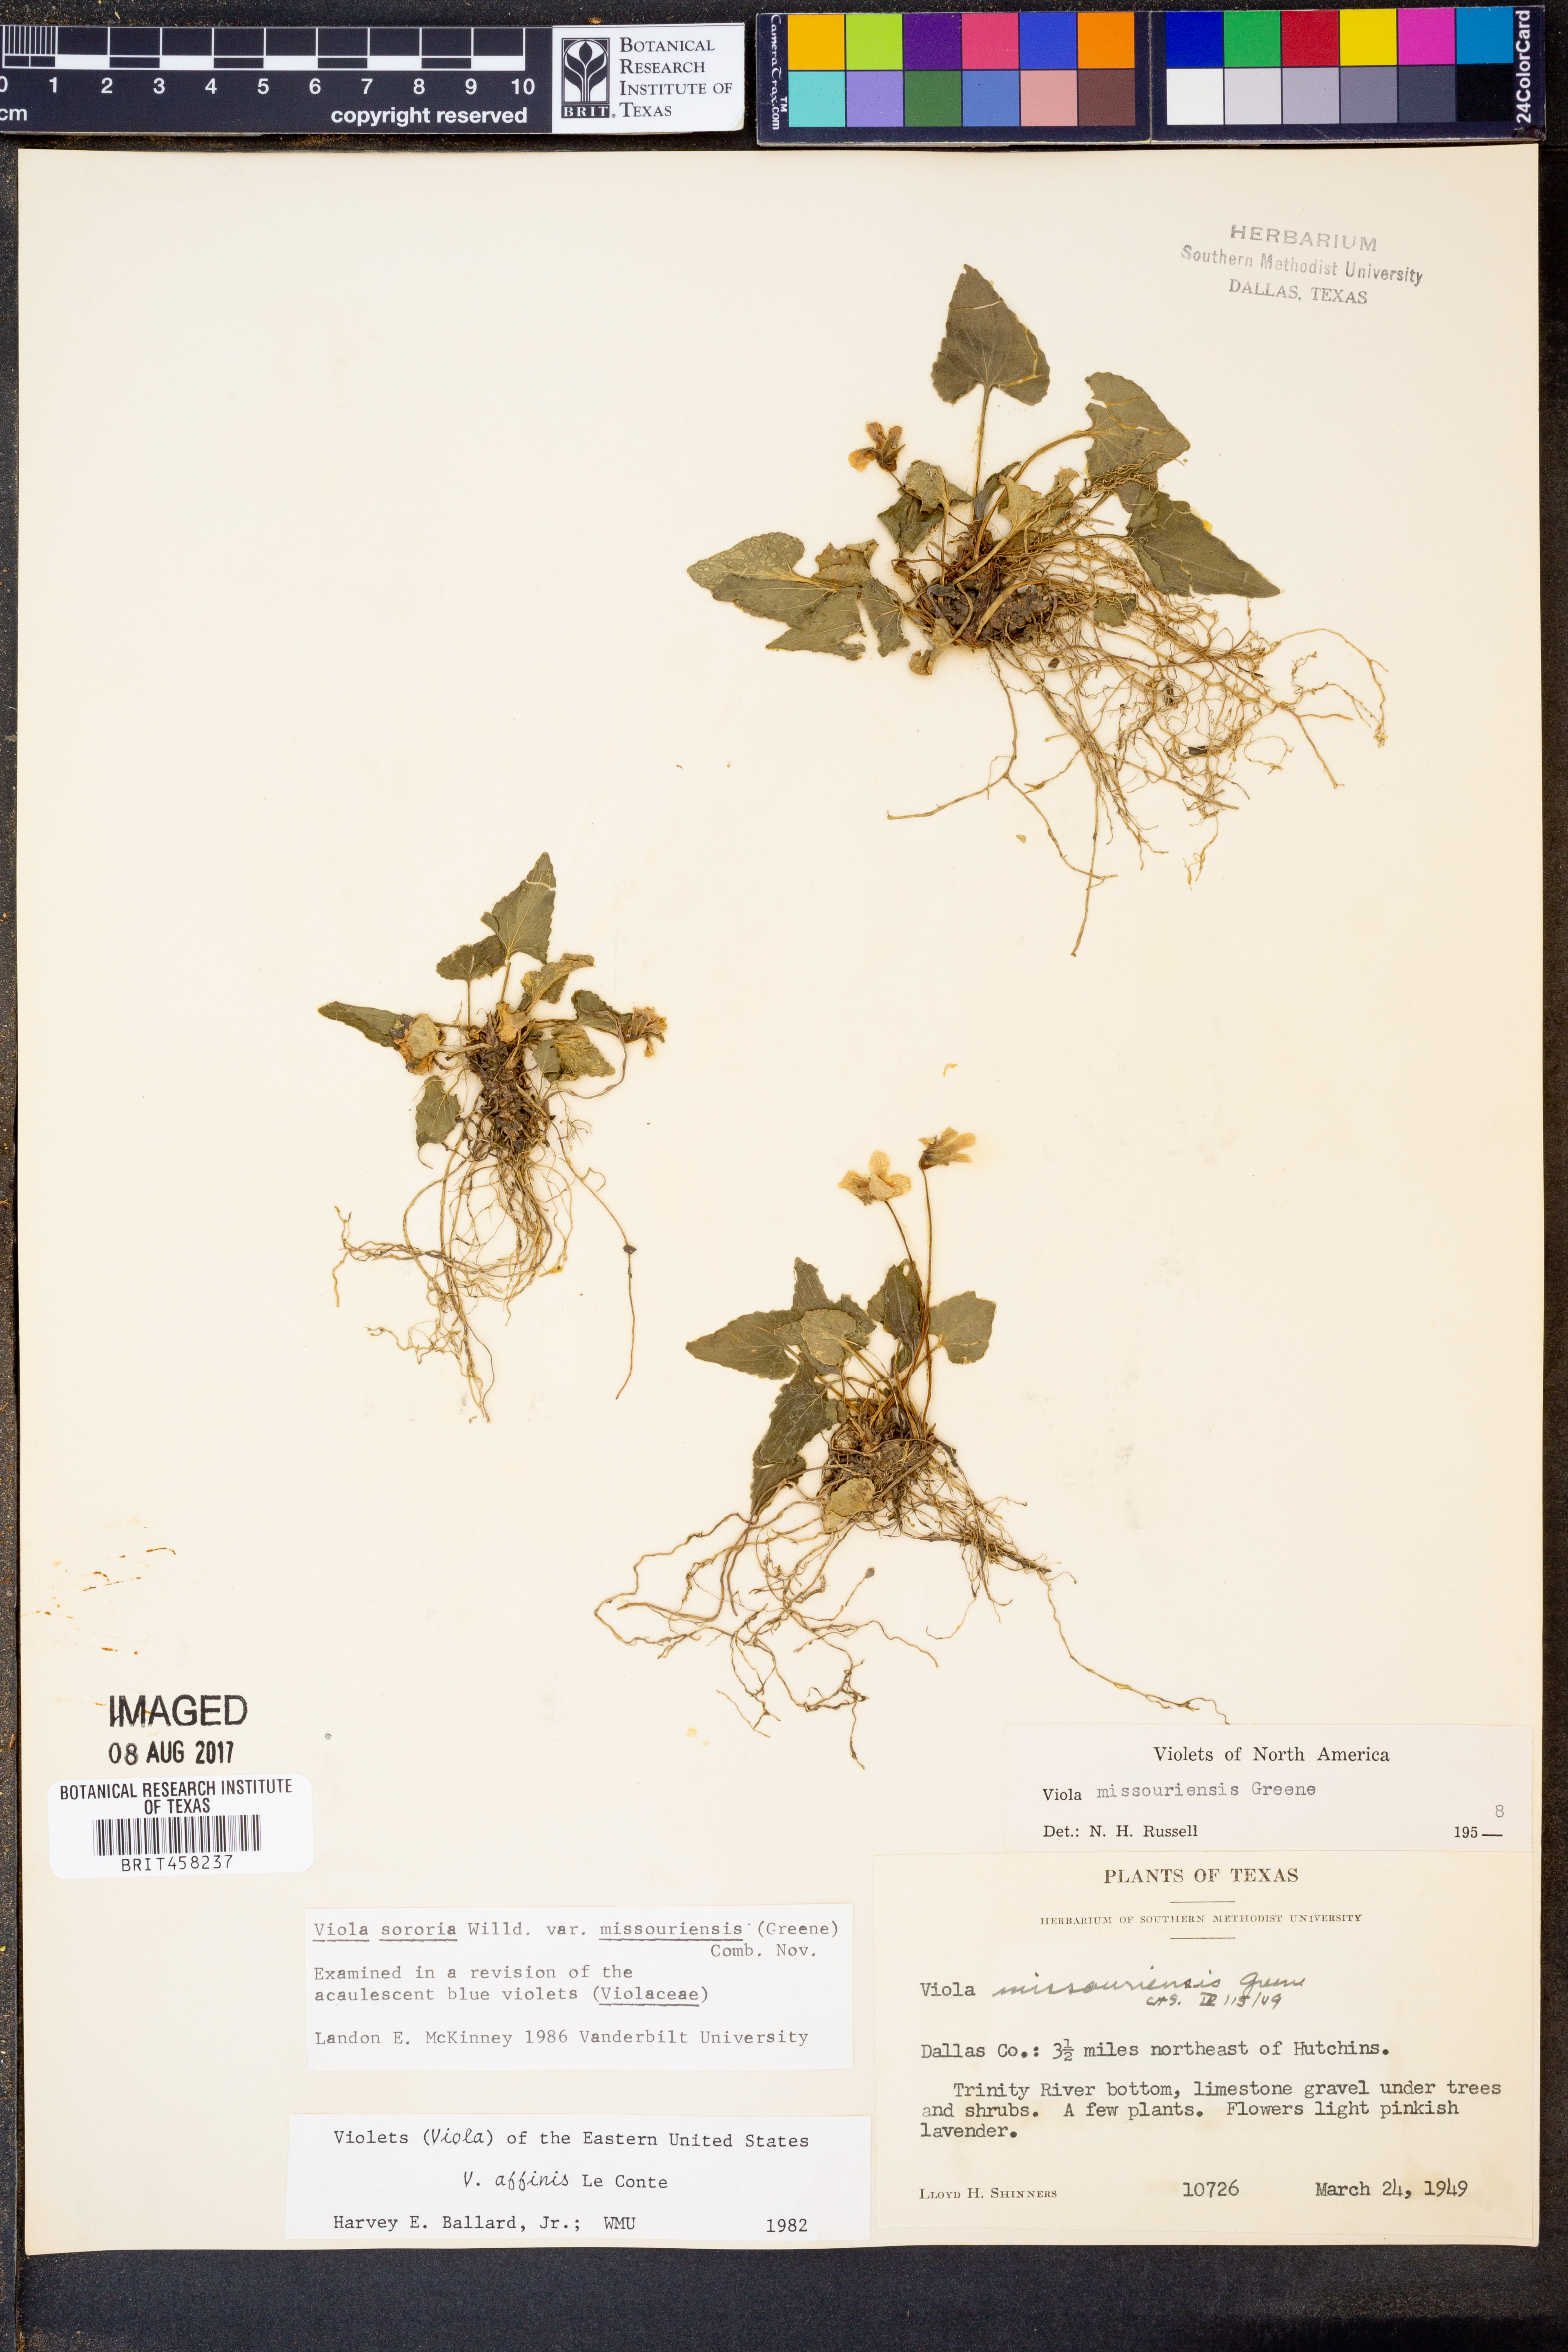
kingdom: Plantae
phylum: Tracheophyta
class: Magnoliopsida
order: Malpighiales
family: Violaceae
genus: Viola
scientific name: Viola missouriensis
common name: Missouri violet
